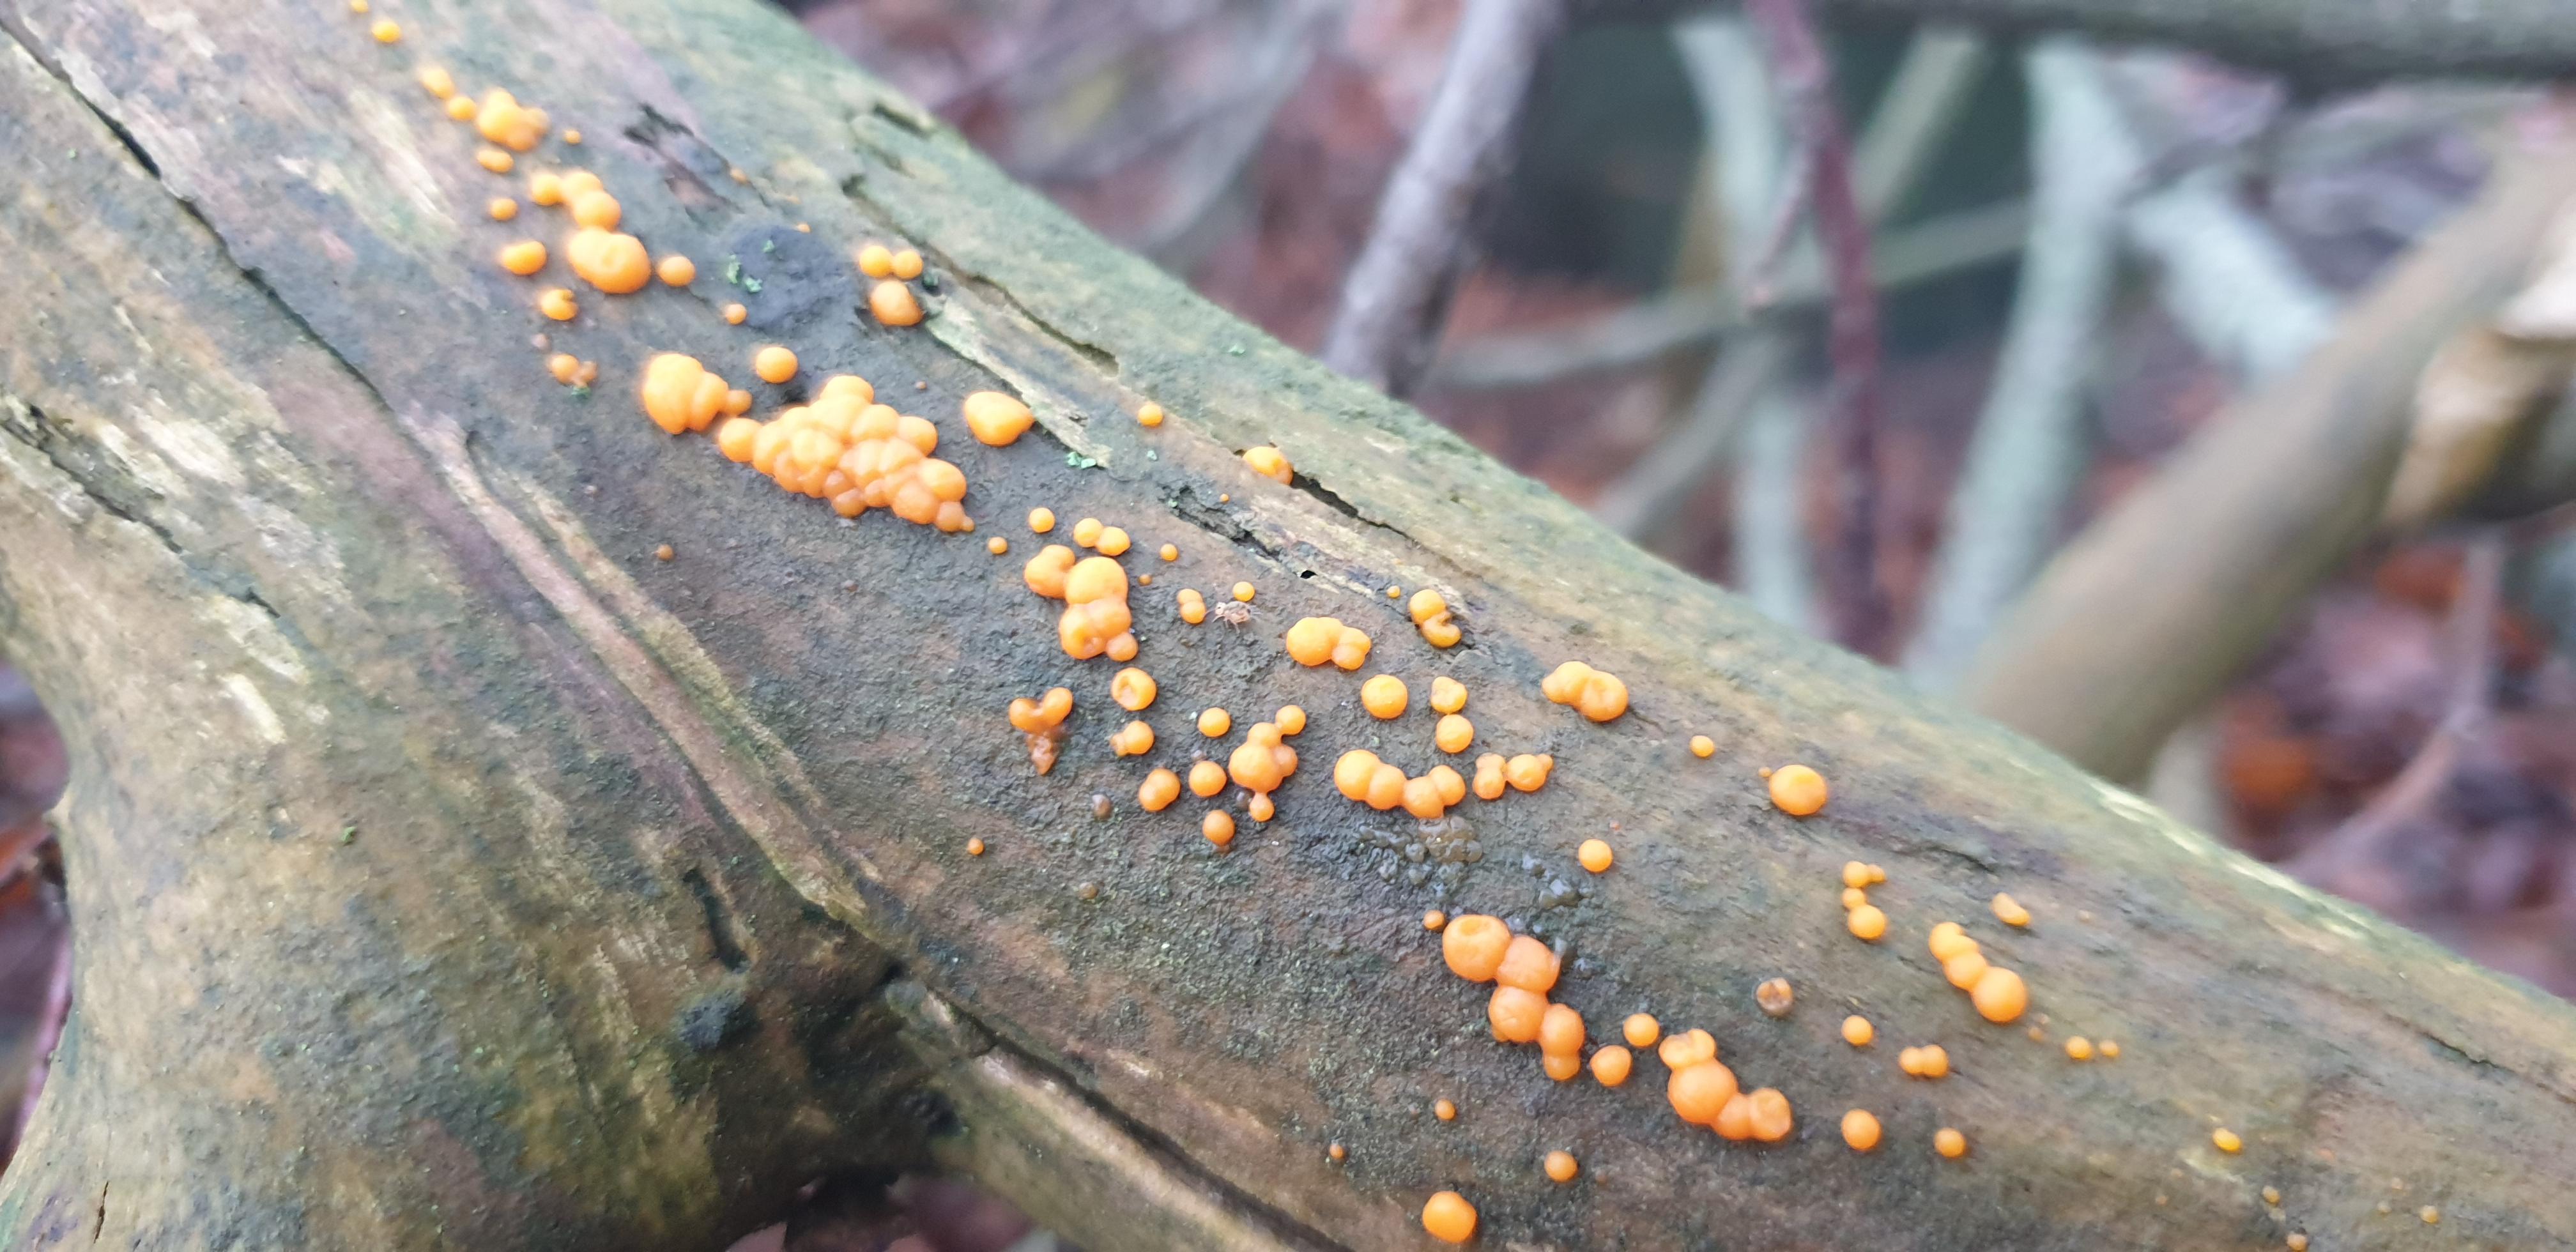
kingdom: Fungi
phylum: Basidiomycota
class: Dacrymycetes
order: Dacrymycetales
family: Dacrymycetaceae
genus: Dacrymyces
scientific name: Dacrymyces stillatus
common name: almindelig tåresvamp
